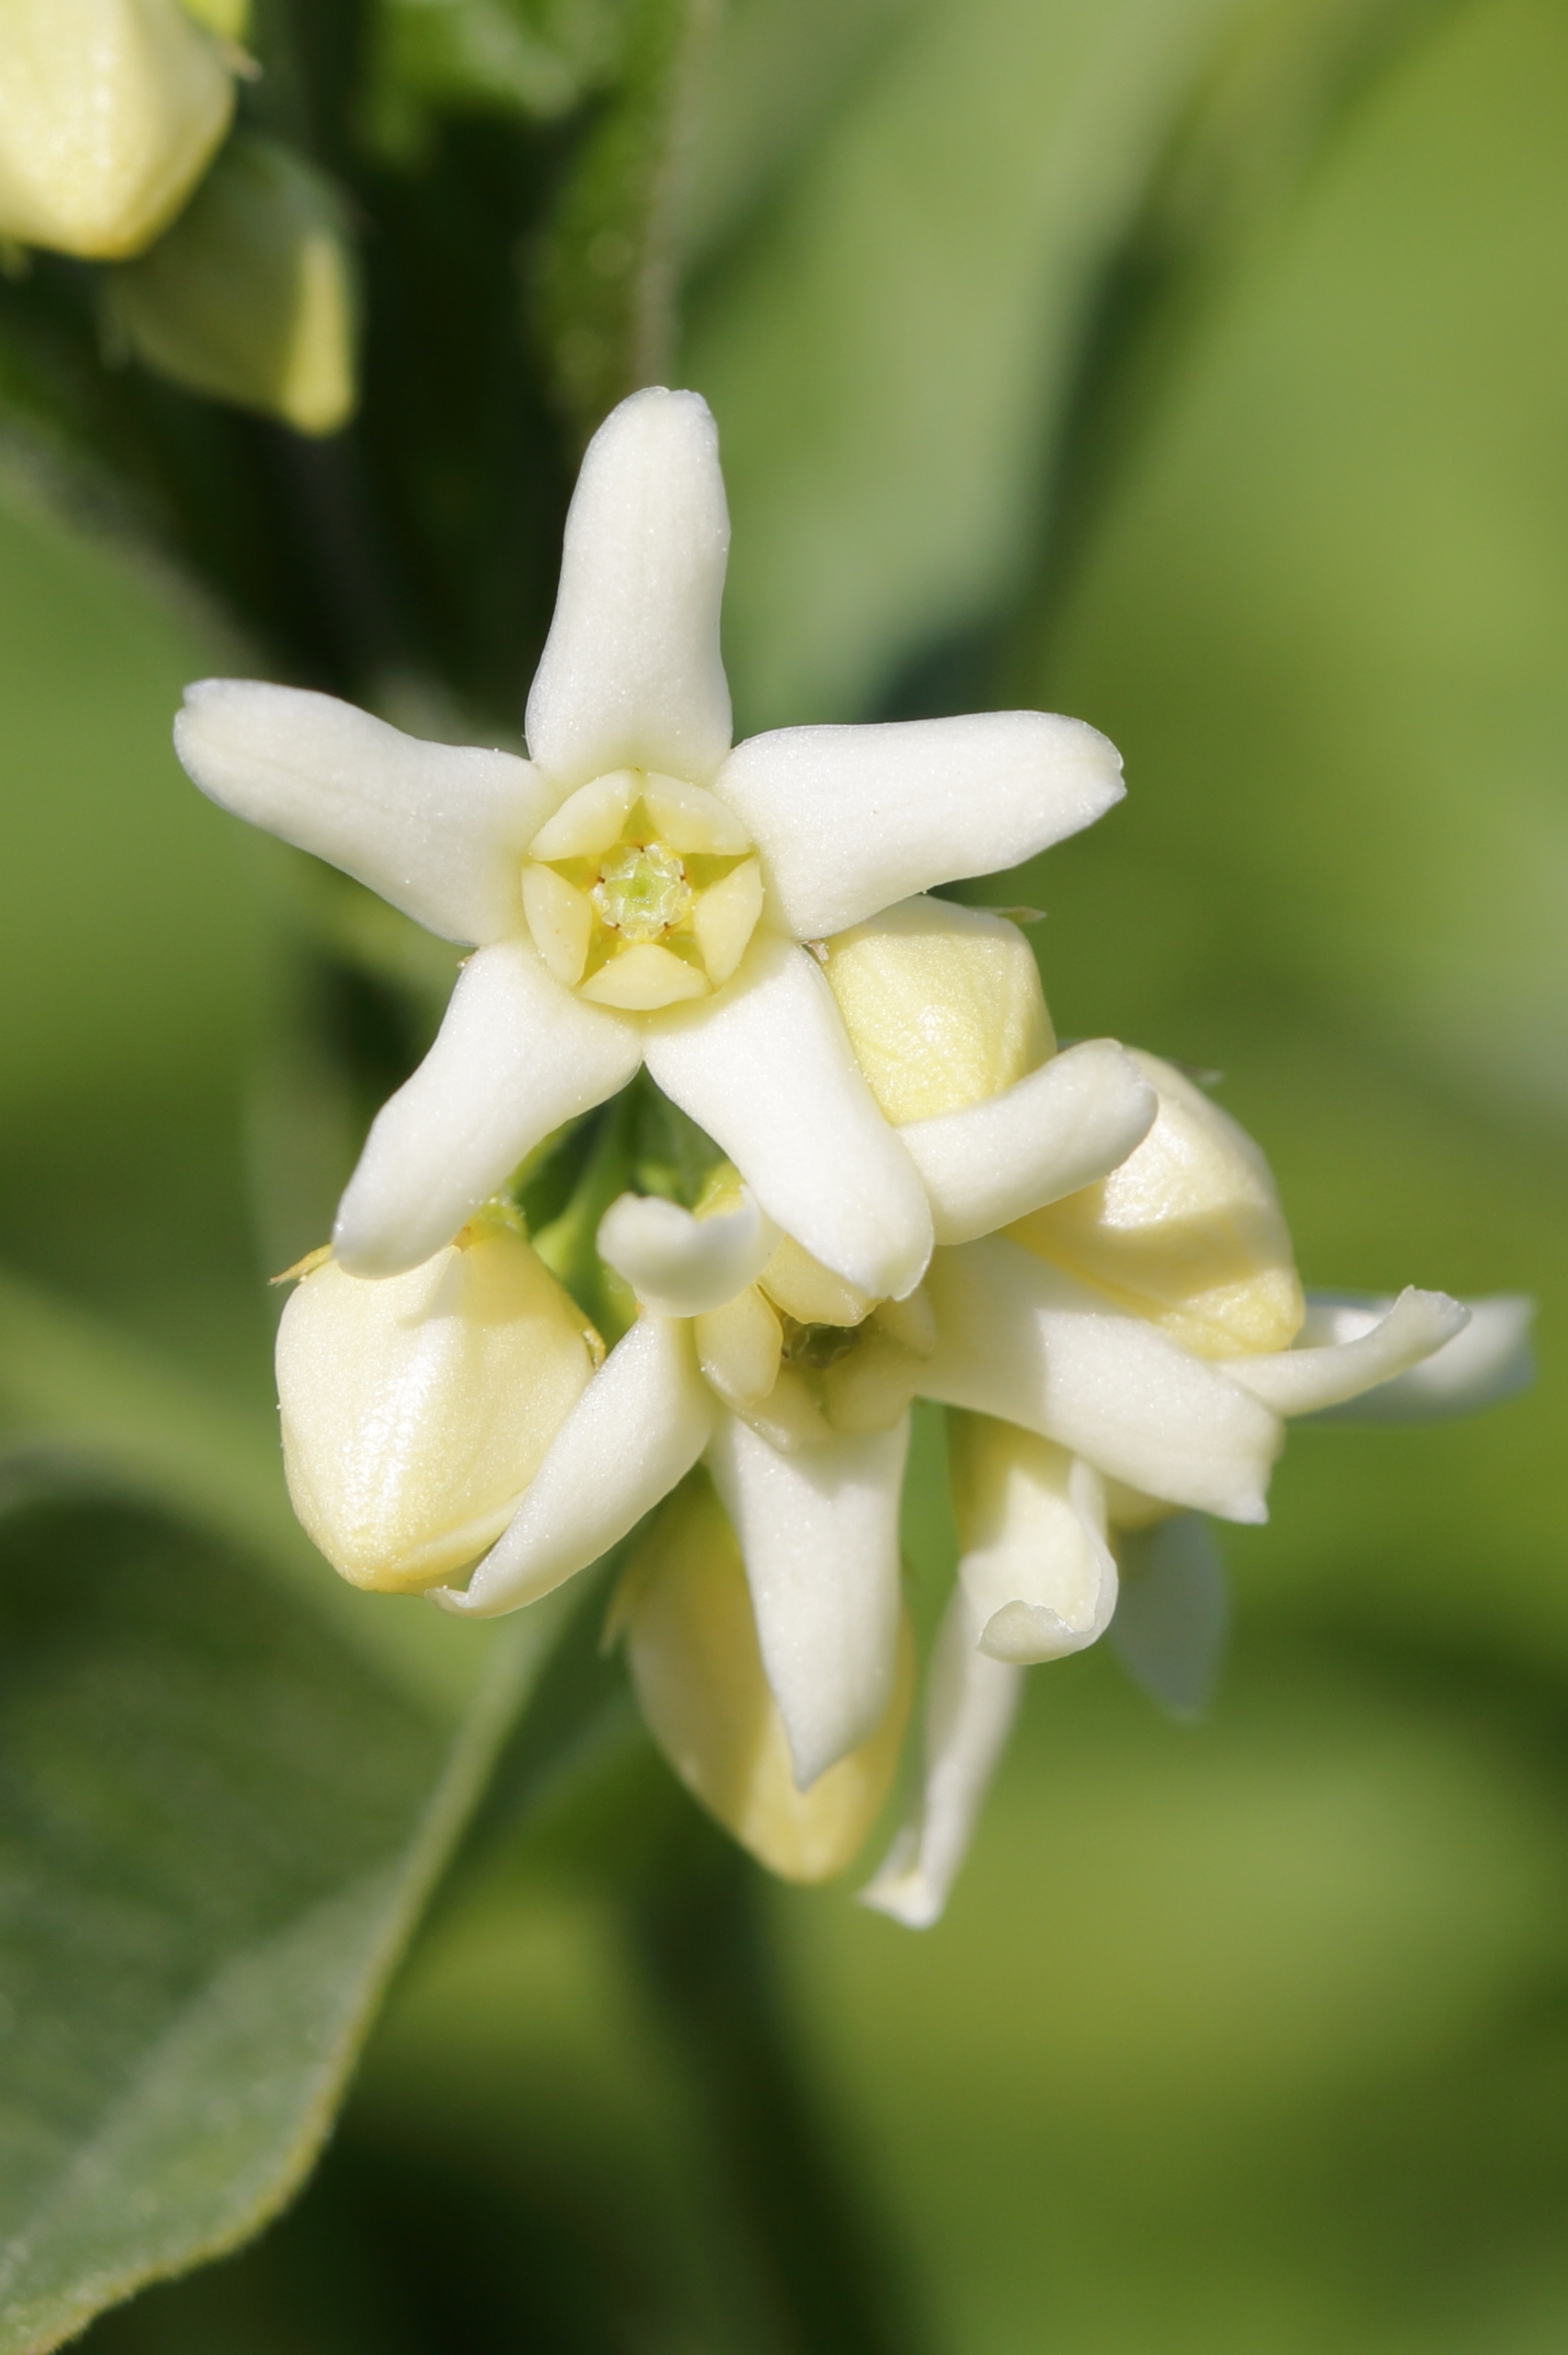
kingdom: Plantae
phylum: Tracheophyta
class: Magnoliopsida
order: Gentianales
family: Apocynaceae
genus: Vincetoxicum
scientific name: Vincetoxicum hirundinaria
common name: Svalerod
